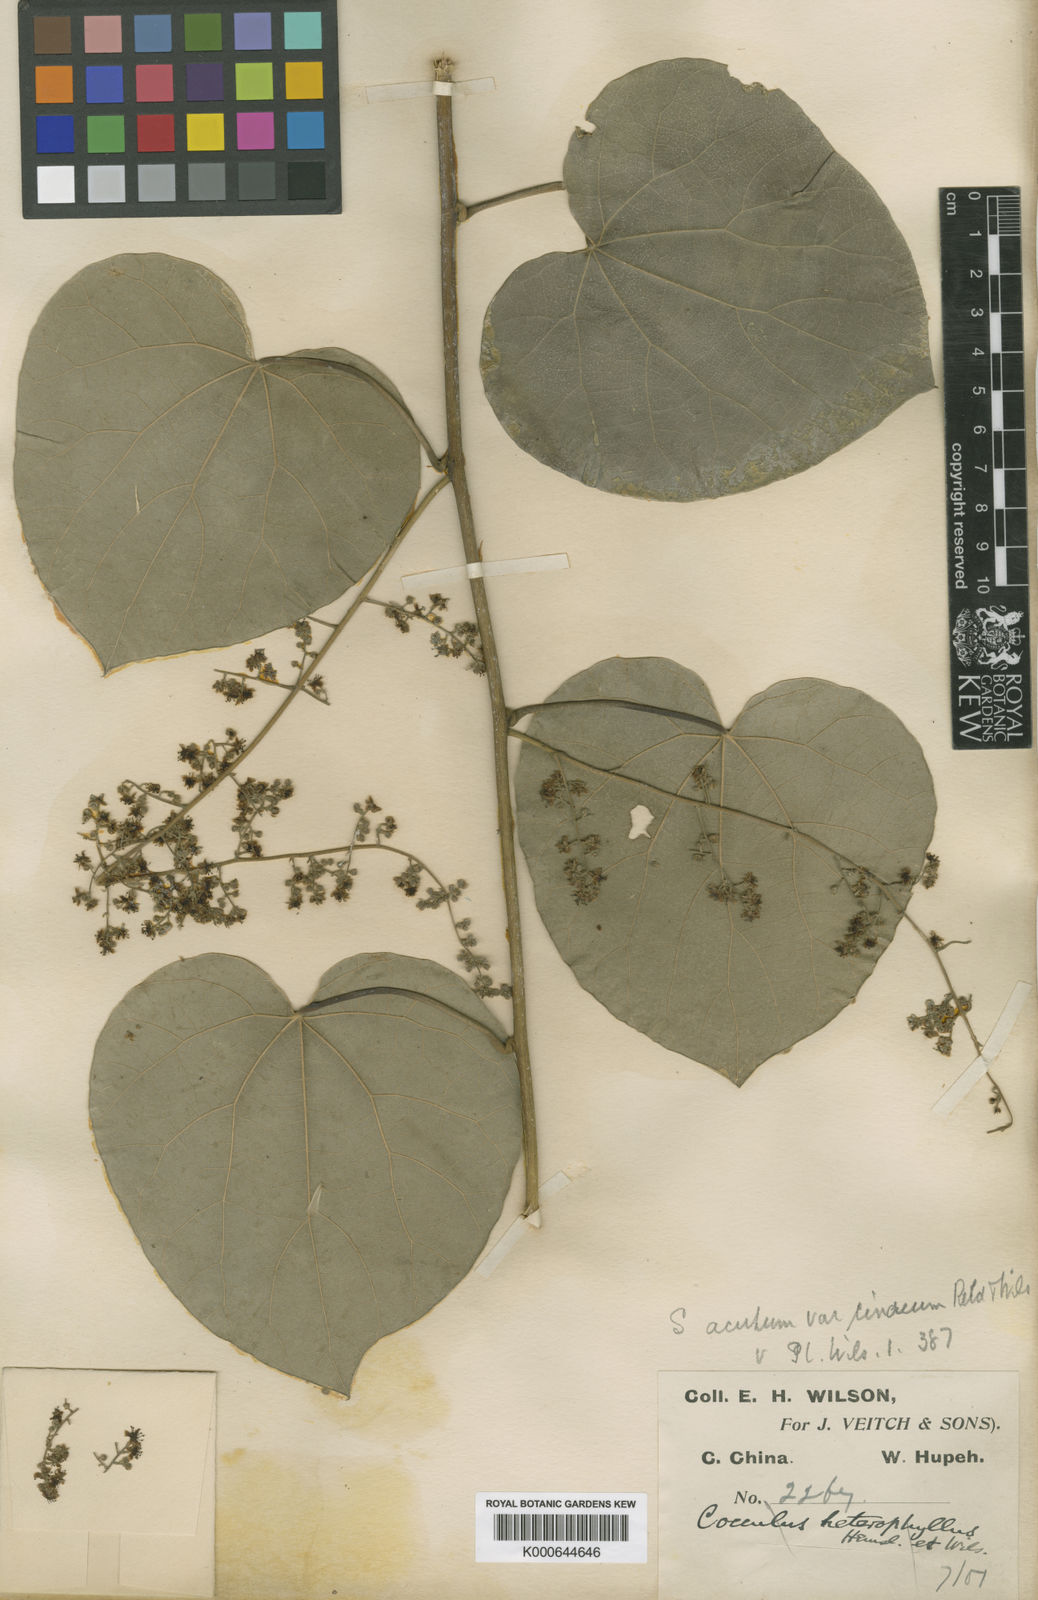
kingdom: Plantae
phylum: Tracheophyta
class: Magnoliopsida
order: Ranunculales
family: Menispermaceae
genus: Sinomenium
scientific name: Sinomenium acutum
